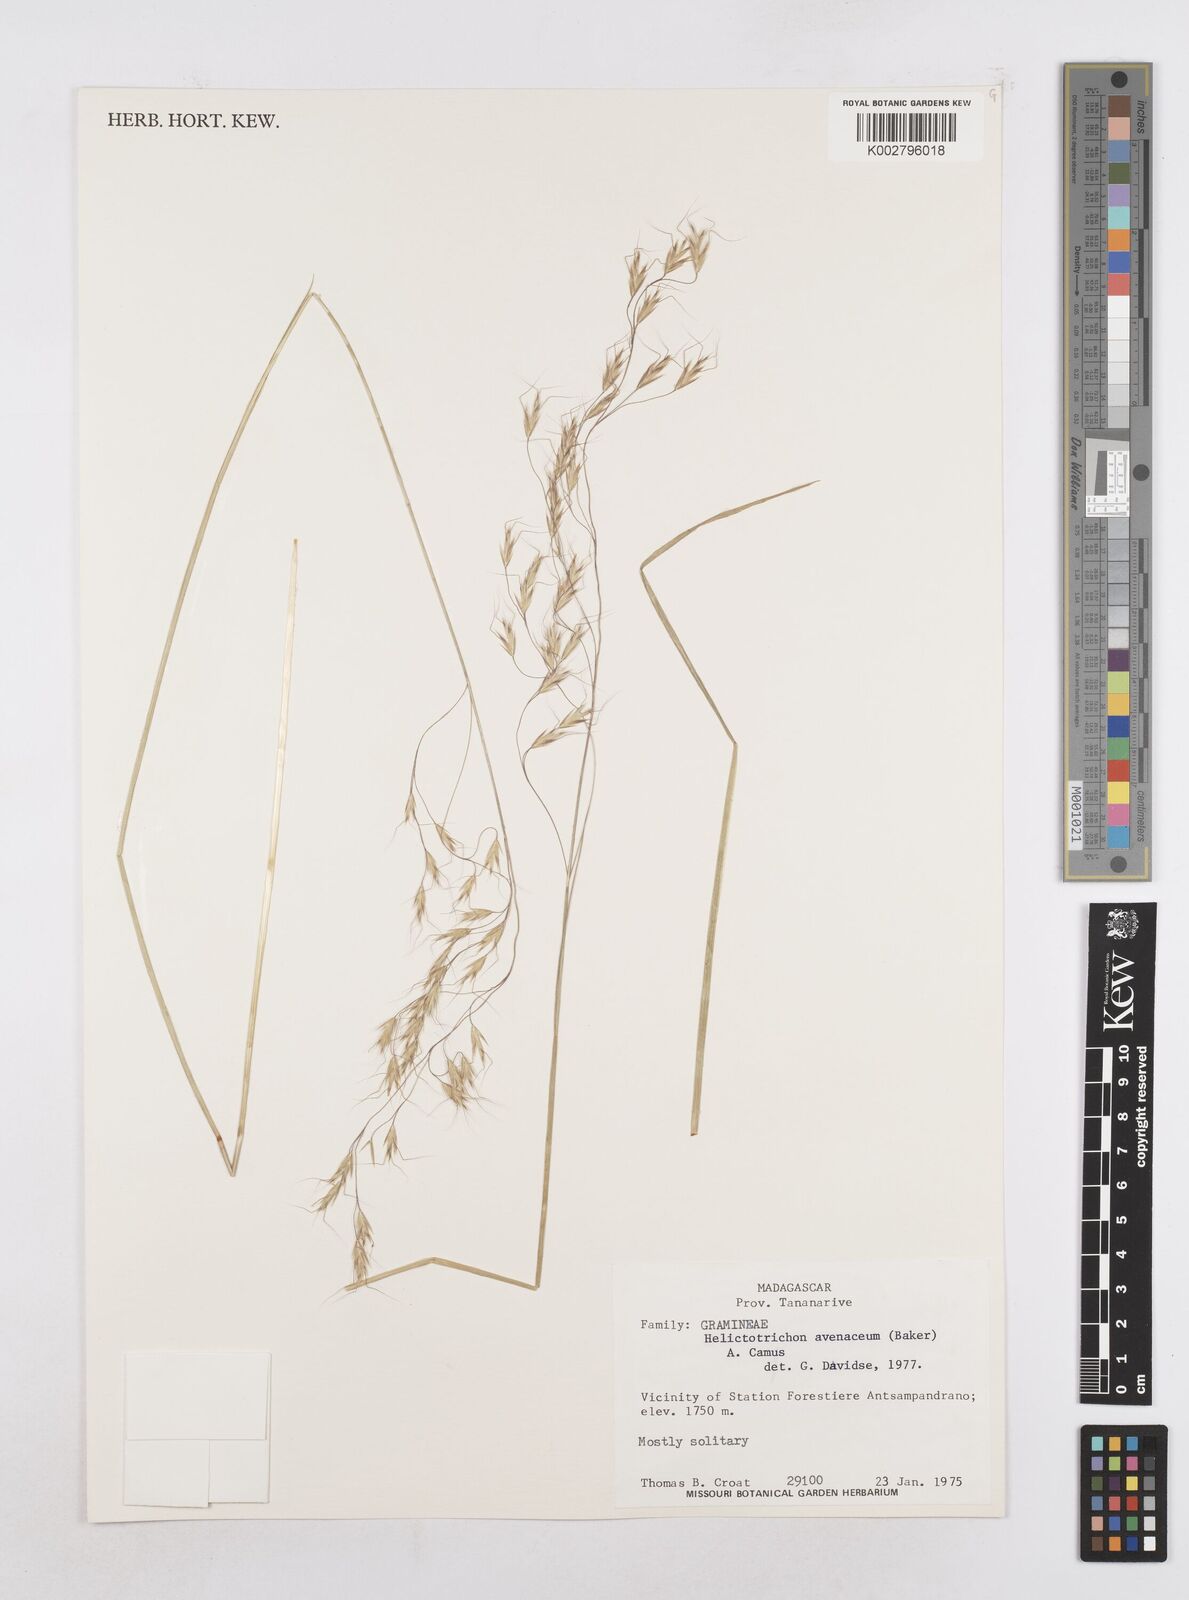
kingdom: Plantae
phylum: Tracheophyta
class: Liliopsida
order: Poales
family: Poaceae
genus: Trisetopsis
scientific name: Trisetopsis elongata
